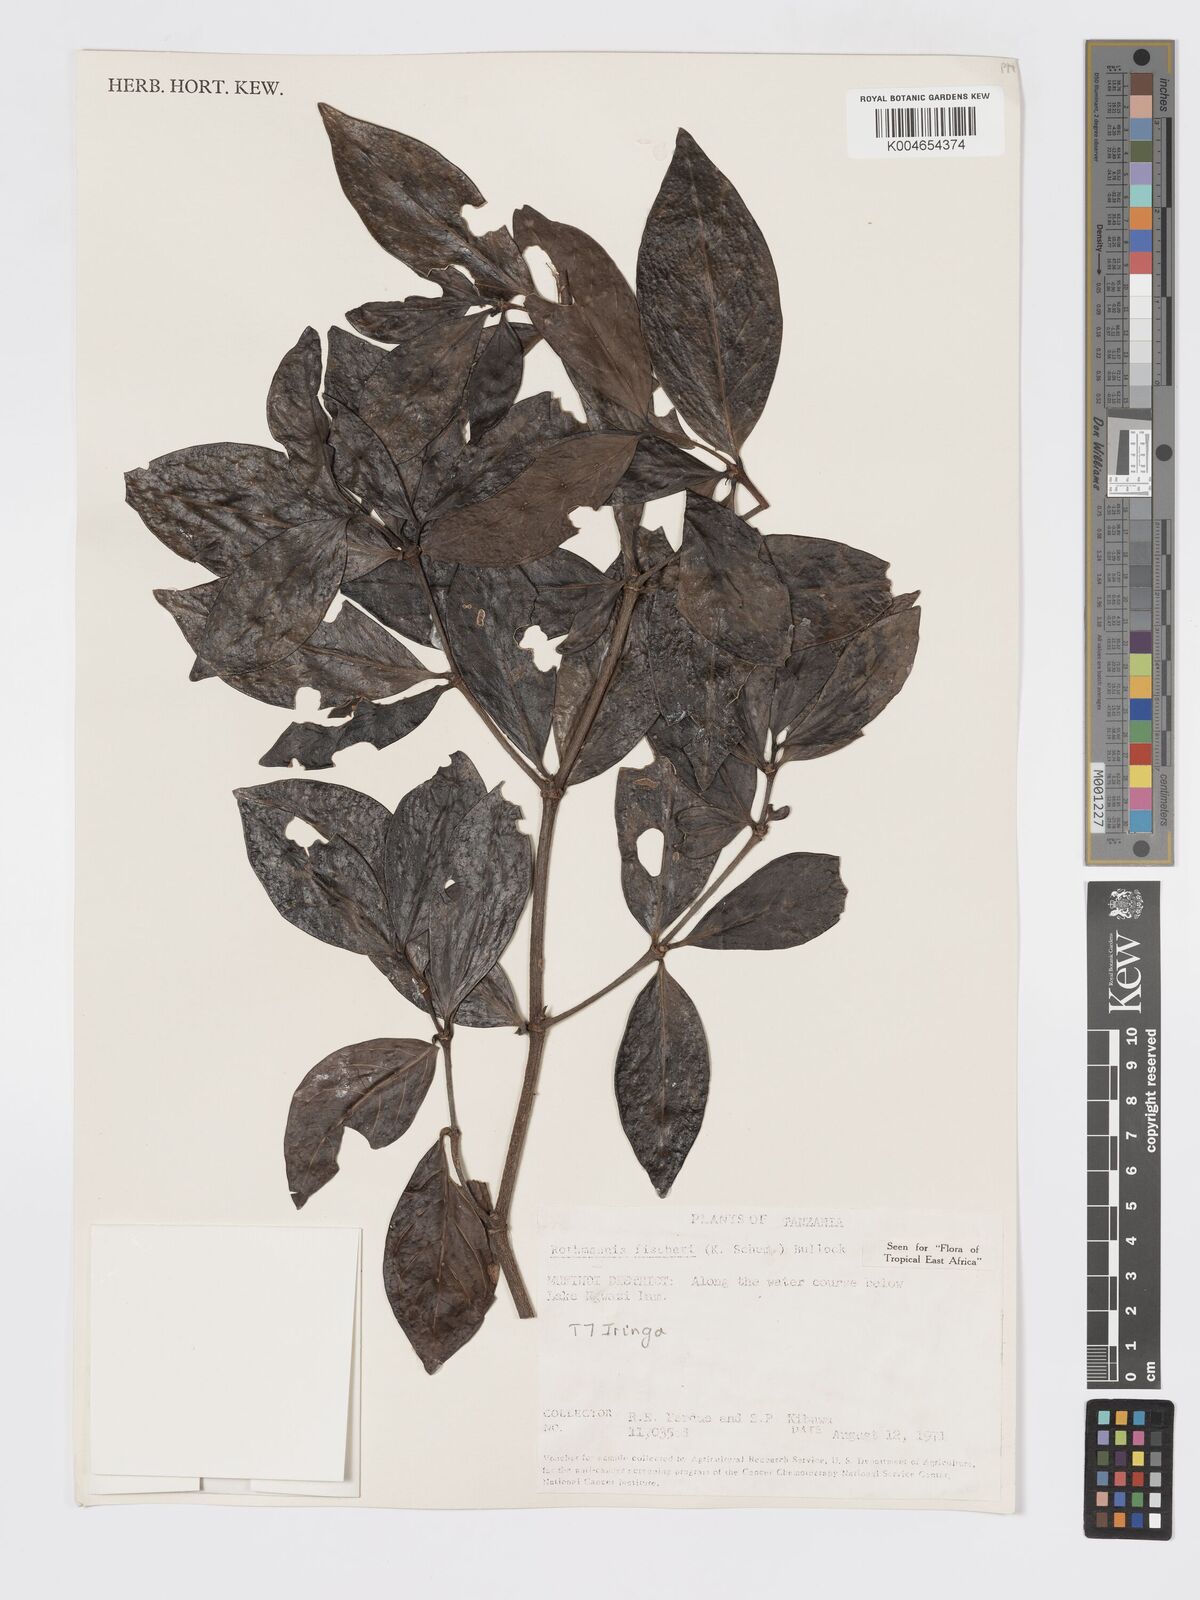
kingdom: Plantae
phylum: Tracheophyta
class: Magnoliopsida
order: Gentianales
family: Rubiaceae
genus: Rothmannia
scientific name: Rothmannia fischeri
